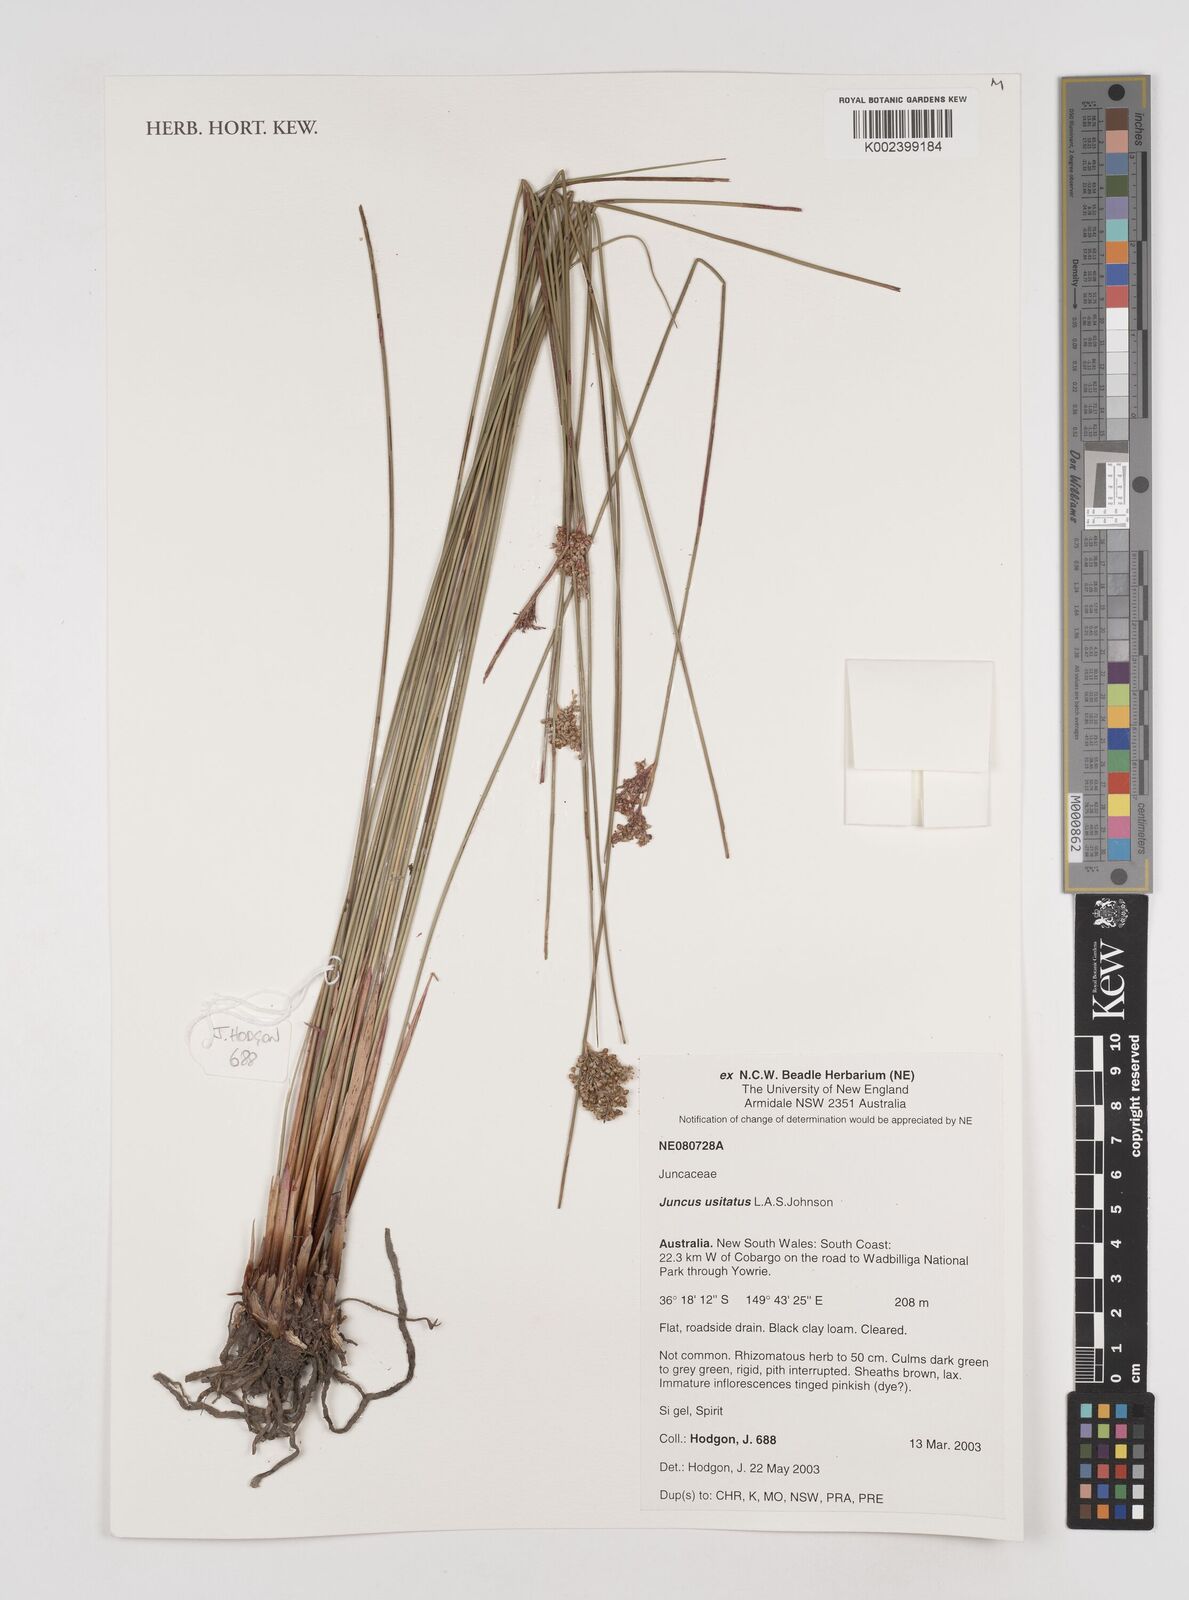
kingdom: Plantae
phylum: Tracheophyta
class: Liliopsida
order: Poales
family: Juncaceae
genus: Juncus
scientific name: Juncus usitatus
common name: Rush
